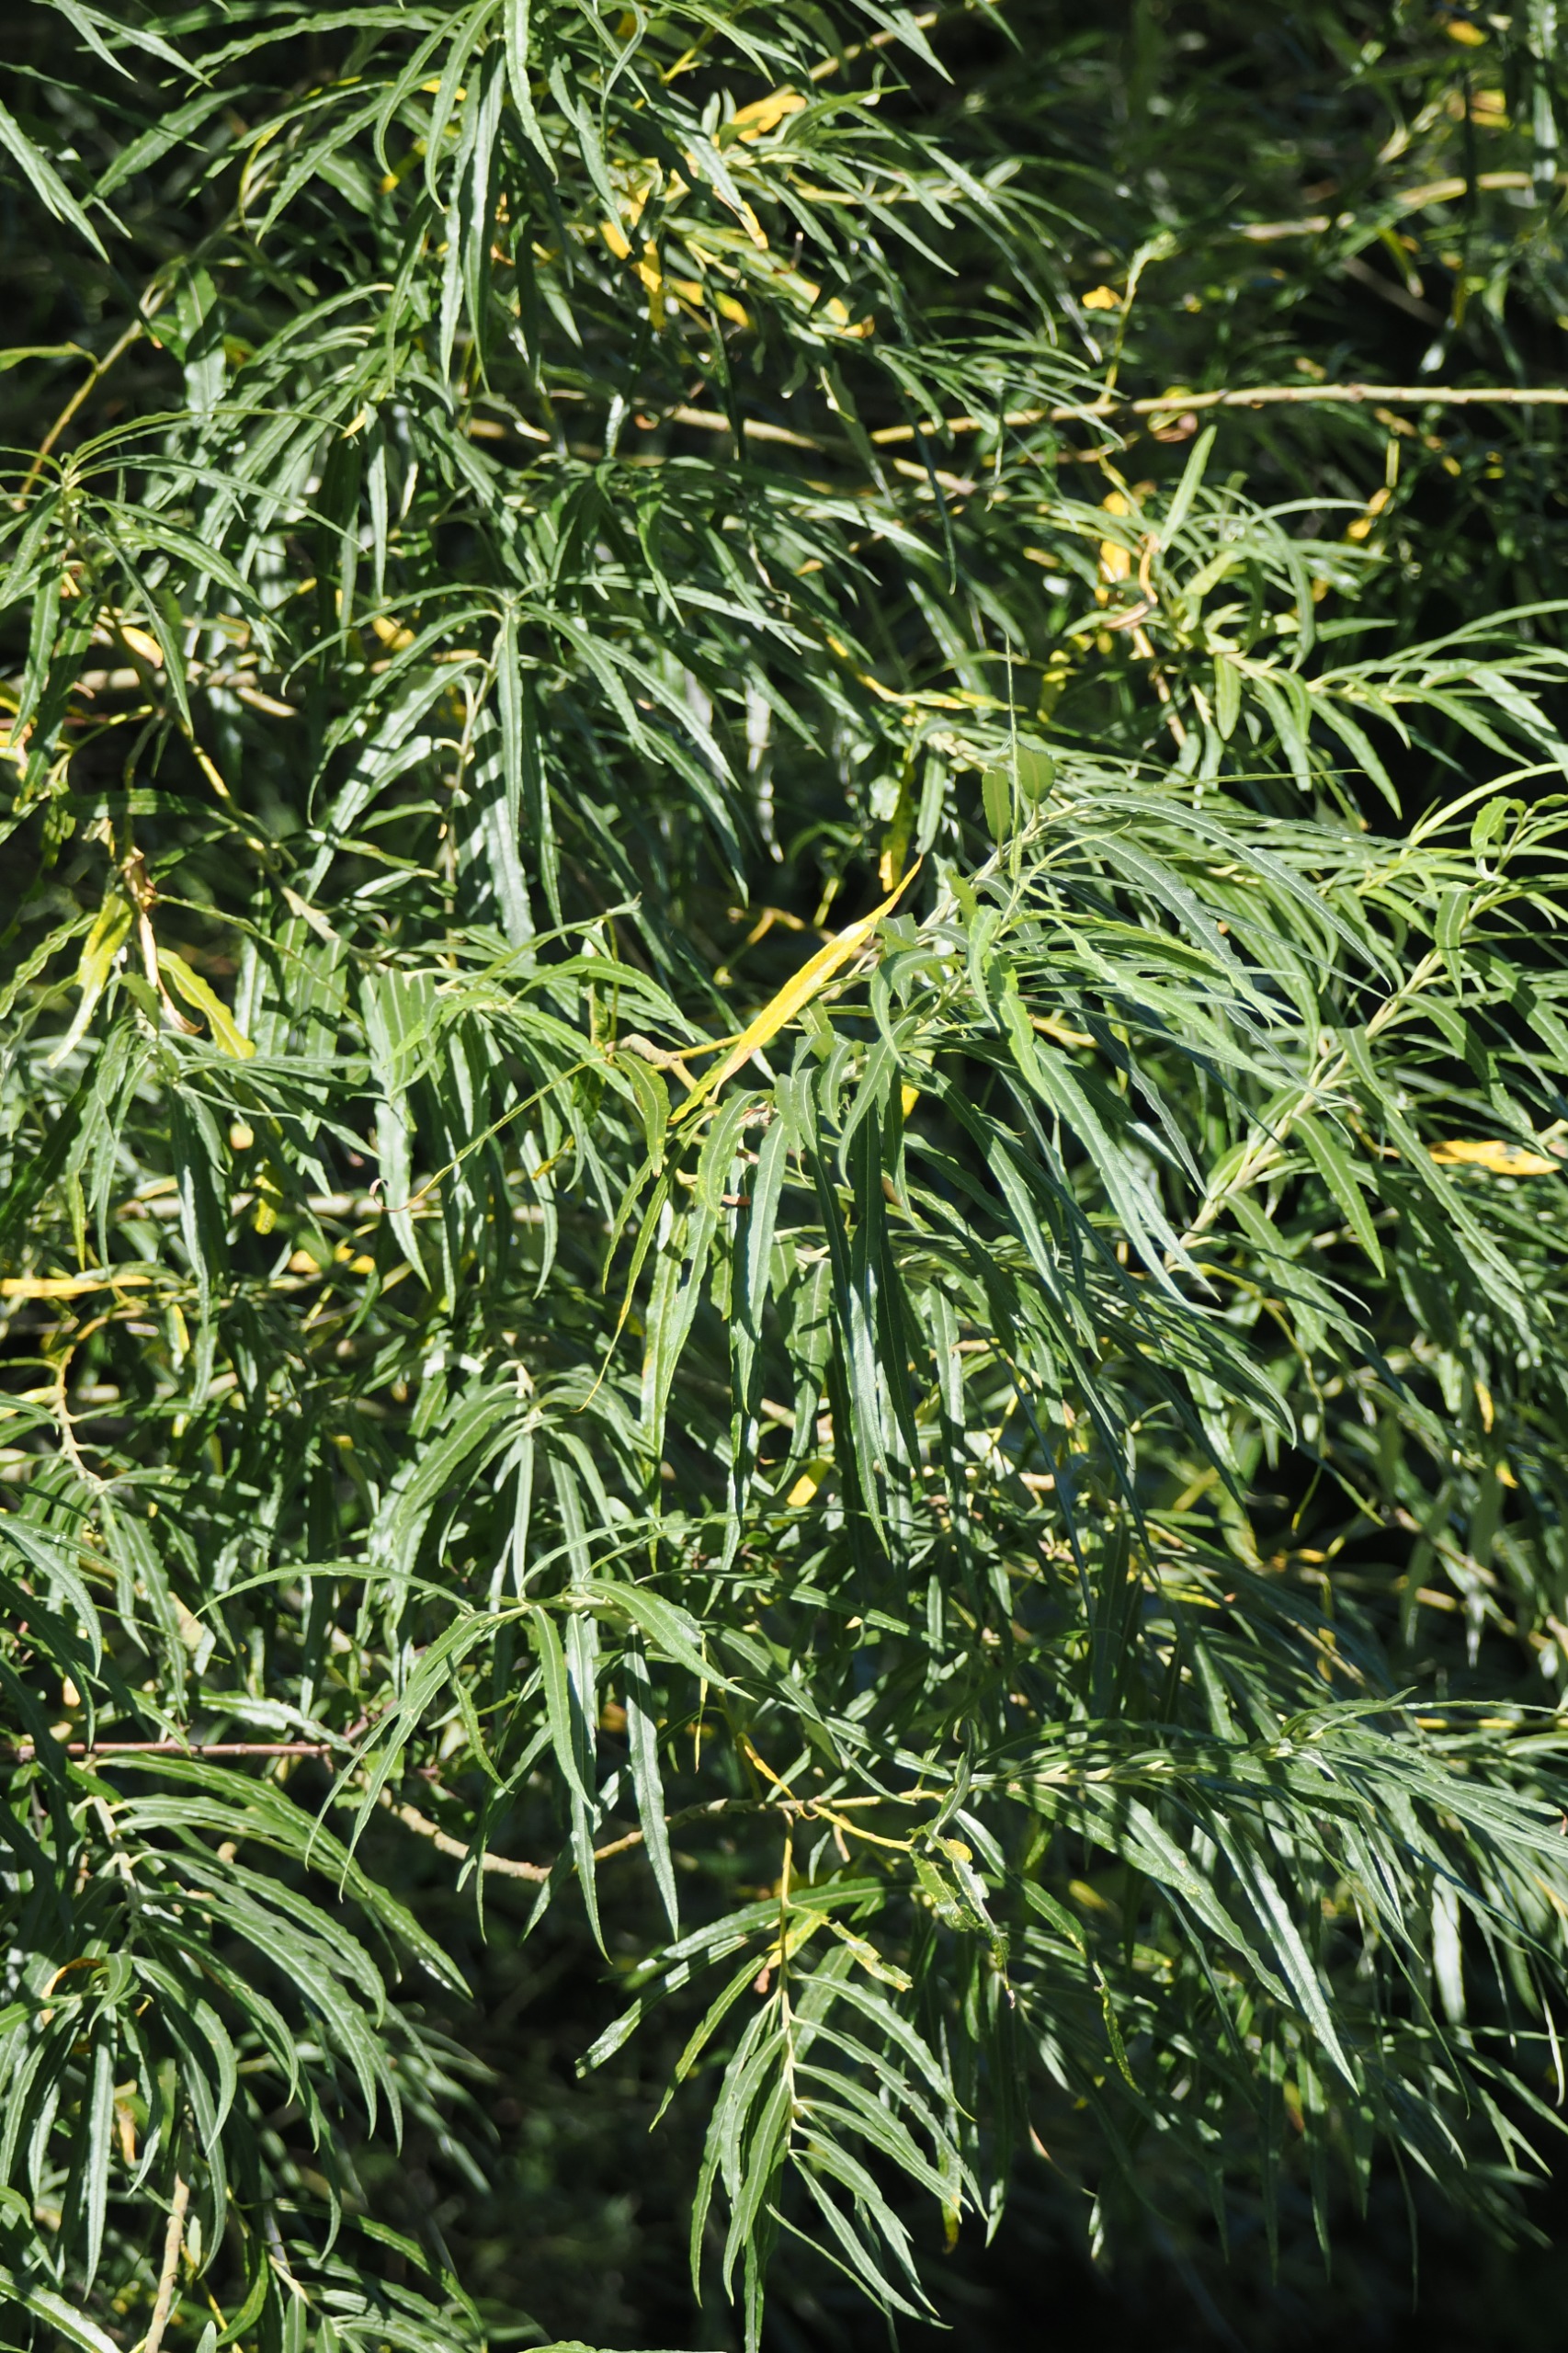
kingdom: Plantae
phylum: Tracheophyta
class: Magnoliopsida
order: Malpighiales
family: Salicaceae
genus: Salix
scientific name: Salix viminalis
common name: Bånd-pil
